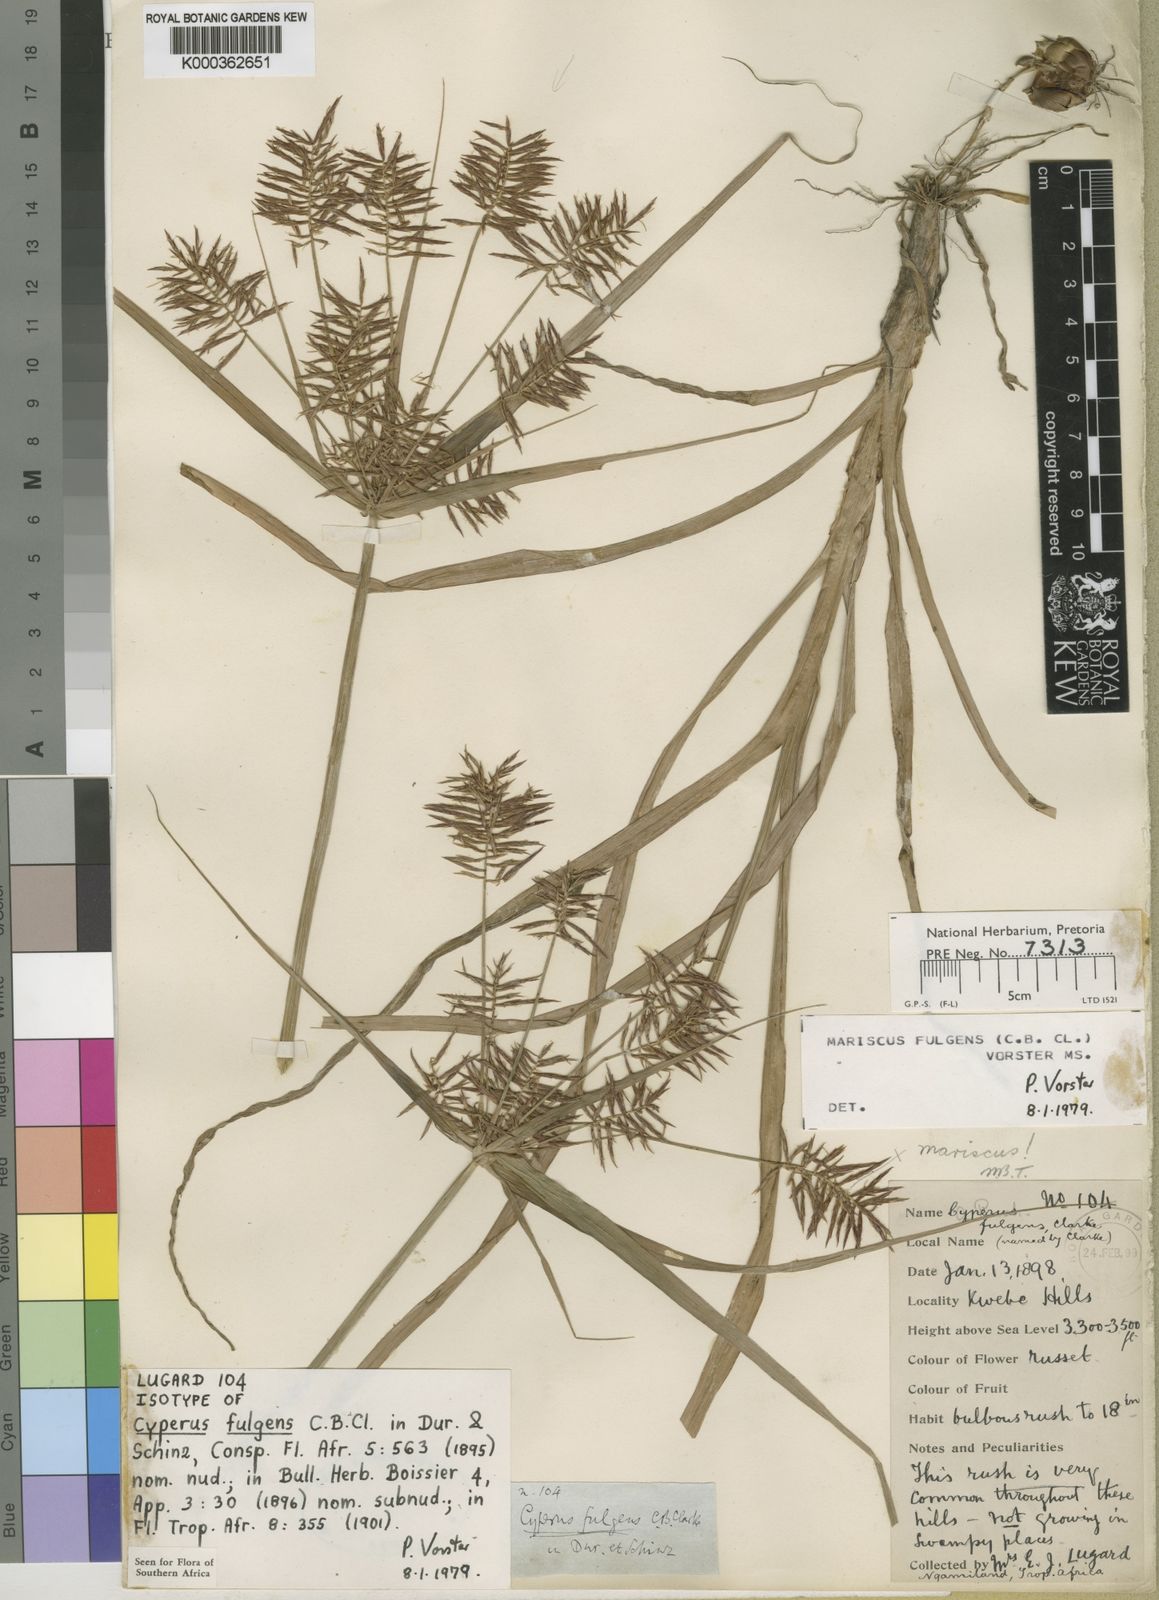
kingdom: Plantae
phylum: Tracheophyta
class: Liliopsida
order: Poales
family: Cyperaceae
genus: Cyperus
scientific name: Cyperus callistus
